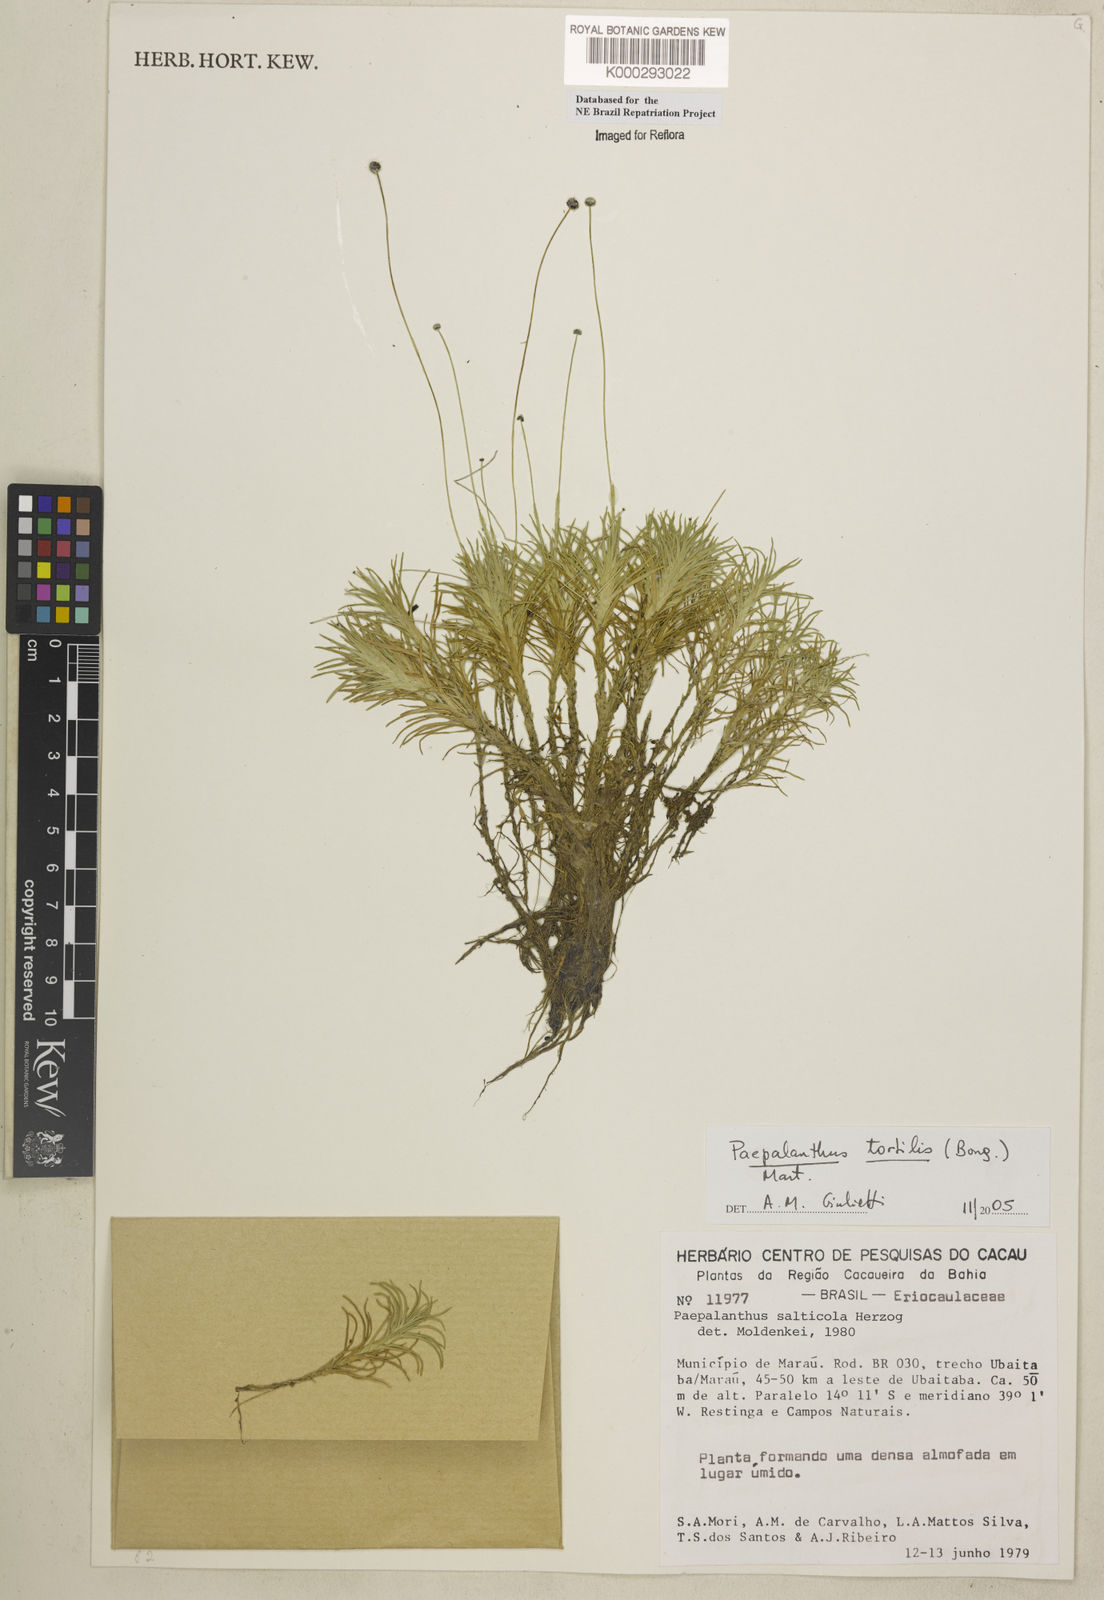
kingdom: Plantae
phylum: Tracheophyta
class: Liliopsida
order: Poales
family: Eriocaulaceae
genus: Paepalanthus
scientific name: Paepalanthus tortilis
